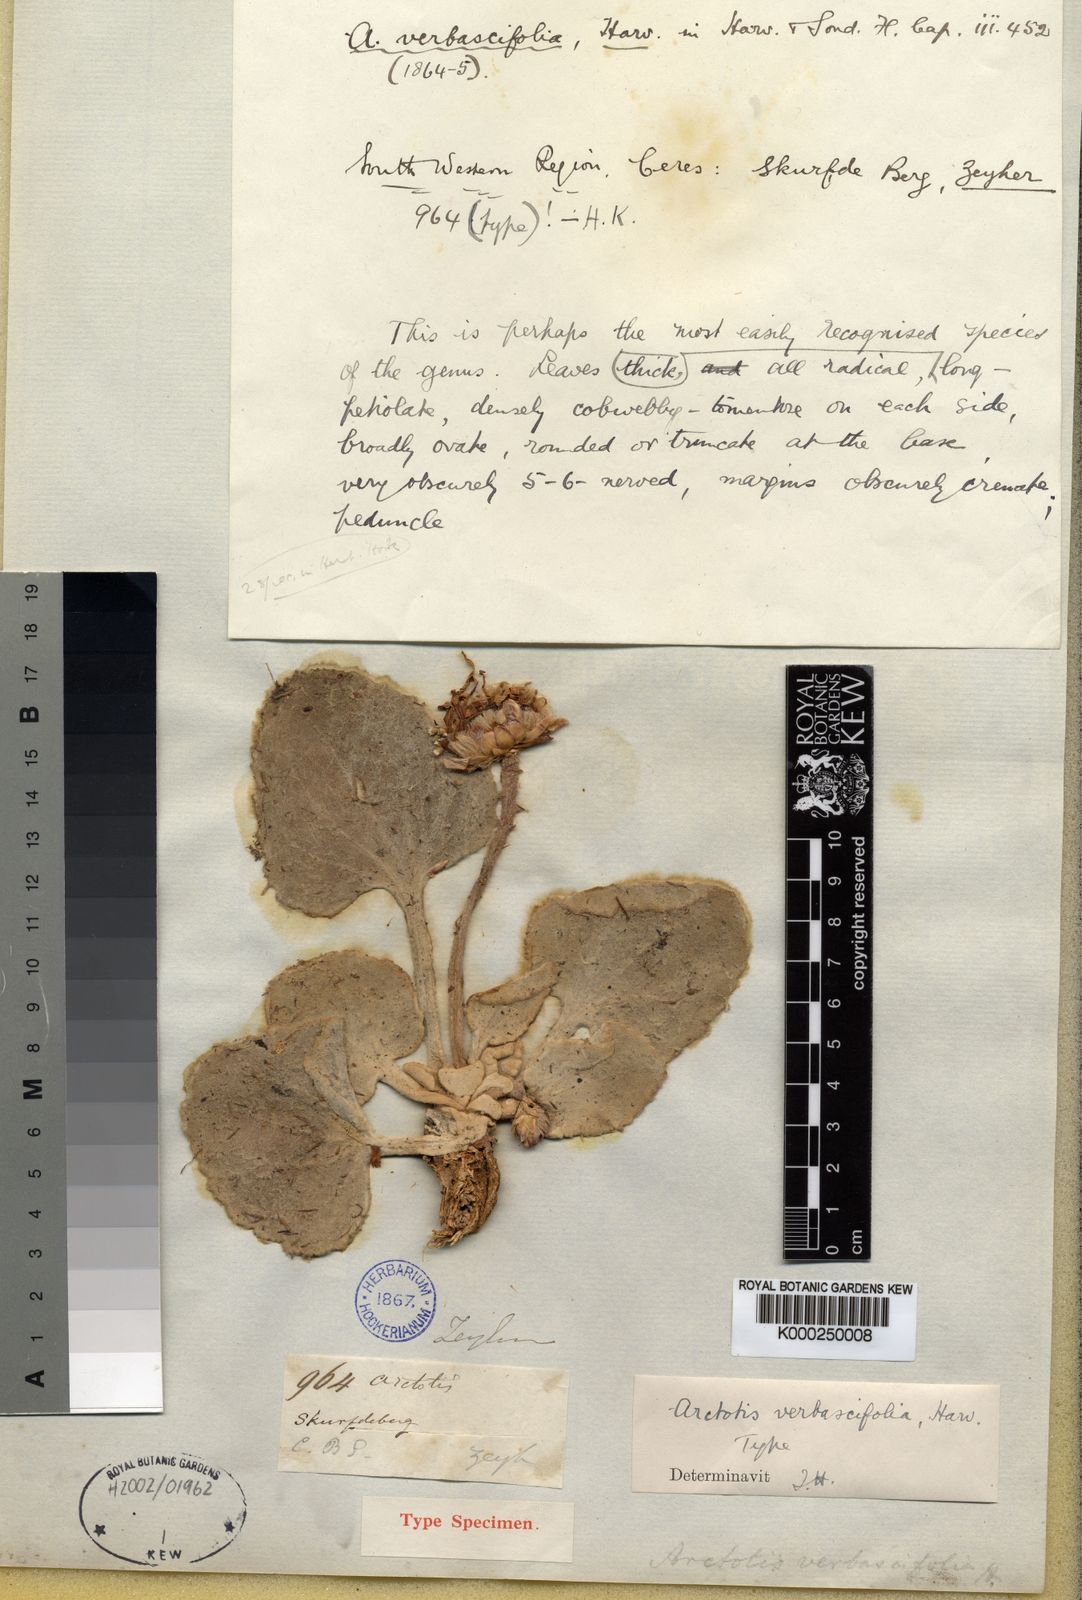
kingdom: Plantae
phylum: Tracheophyta
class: Magnoliopsida
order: Asterales
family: Asteraceae
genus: Arctotis
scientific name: Arctotis
